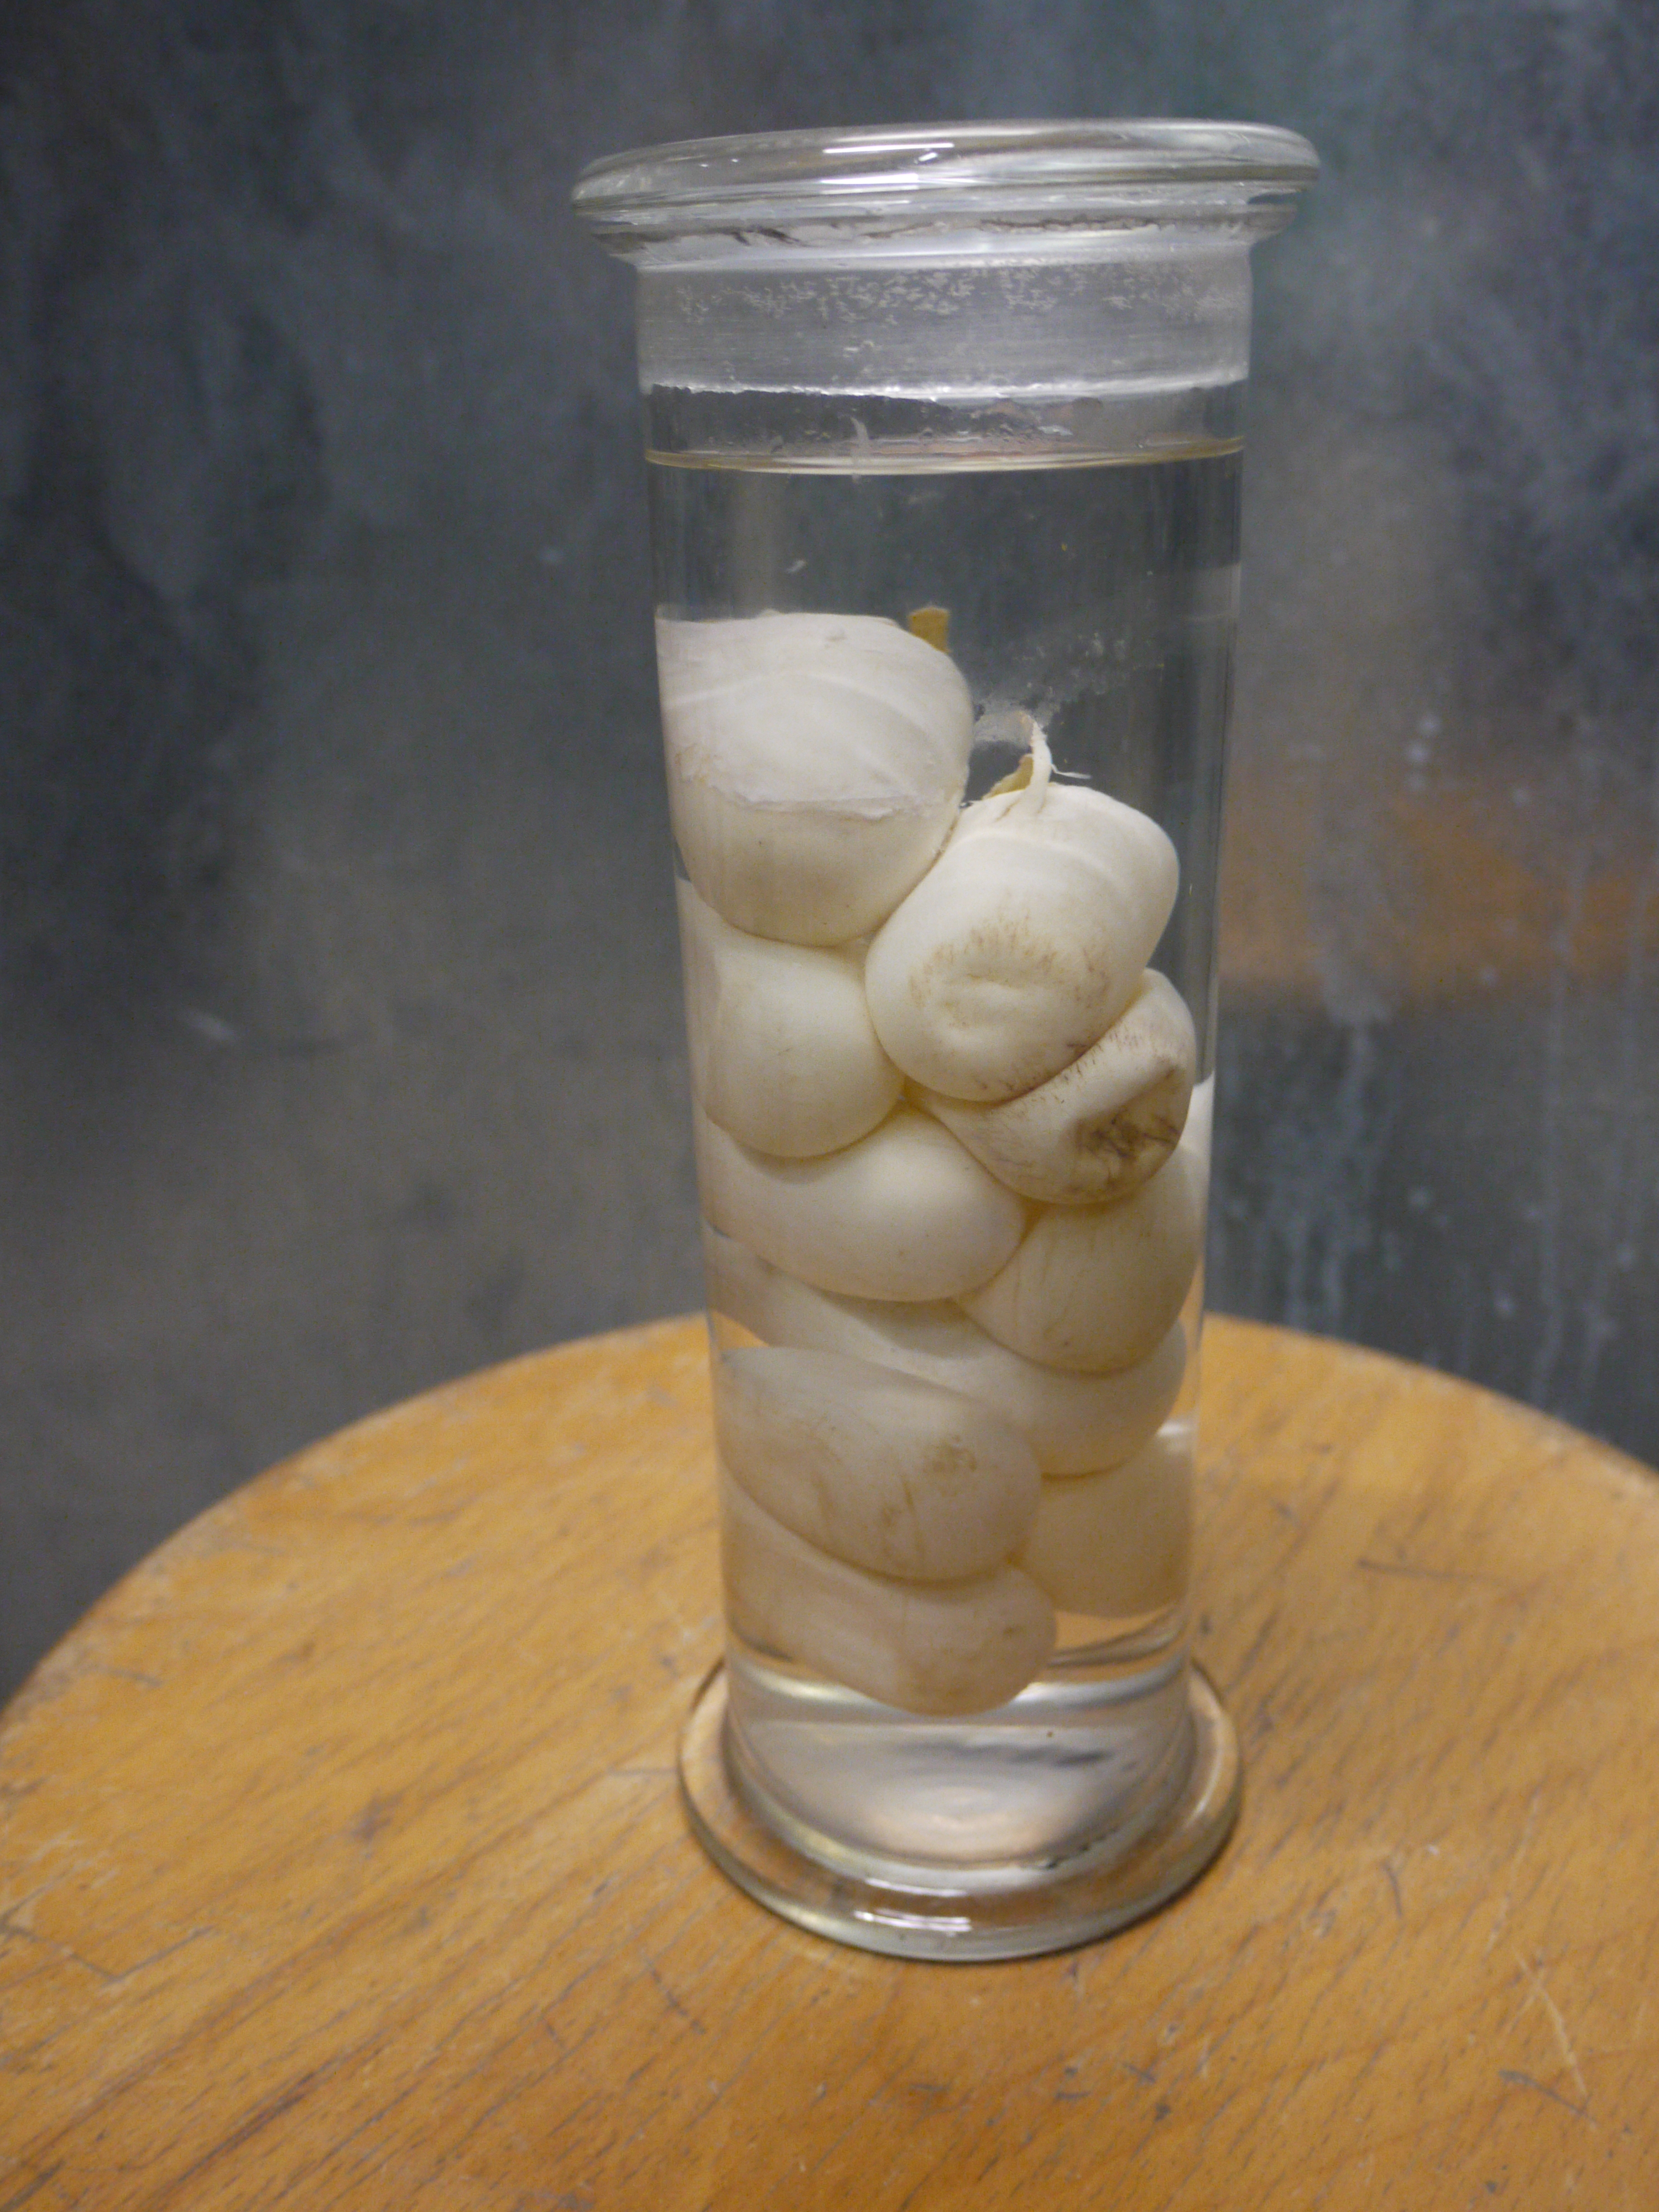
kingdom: Animalia
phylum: Chordata
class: Squamata
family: Colubridae
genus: Natrix
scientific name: Natrix natrix
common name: Grass snake
